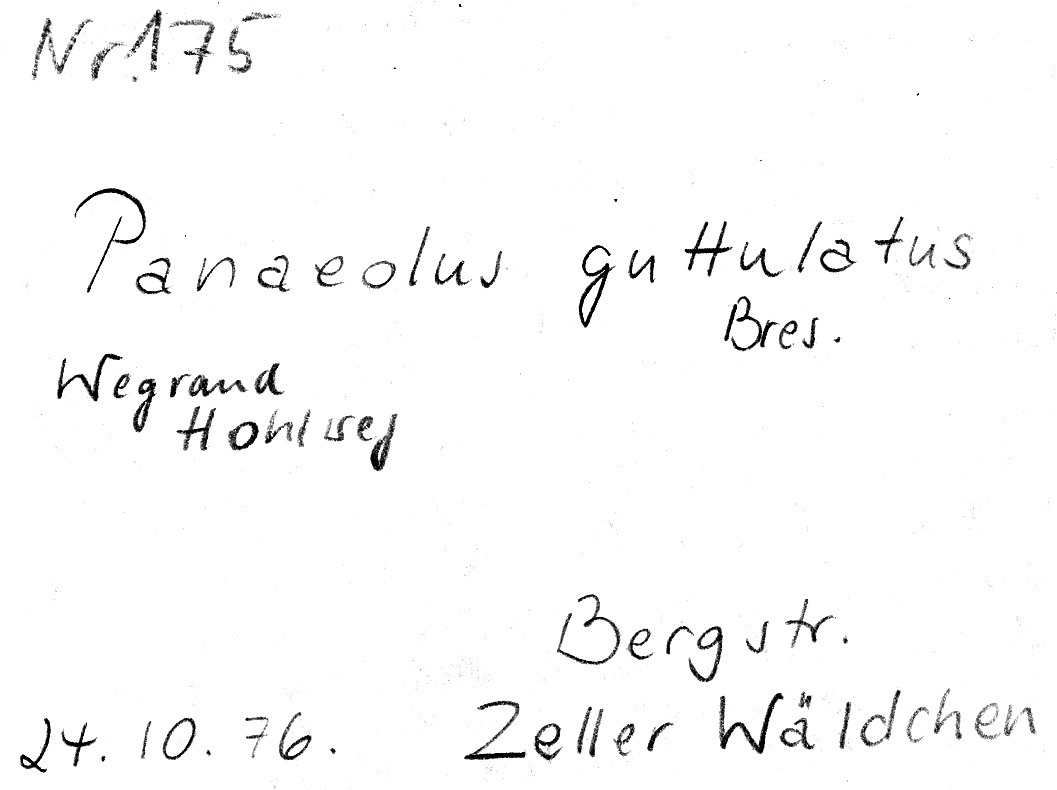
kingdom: Fungi
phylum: Basidiomycota
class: Agaricomycetes
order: Agaricales
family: Bolbitiaceae
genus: Panaeolus
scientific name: Panaeolus guttulatus
